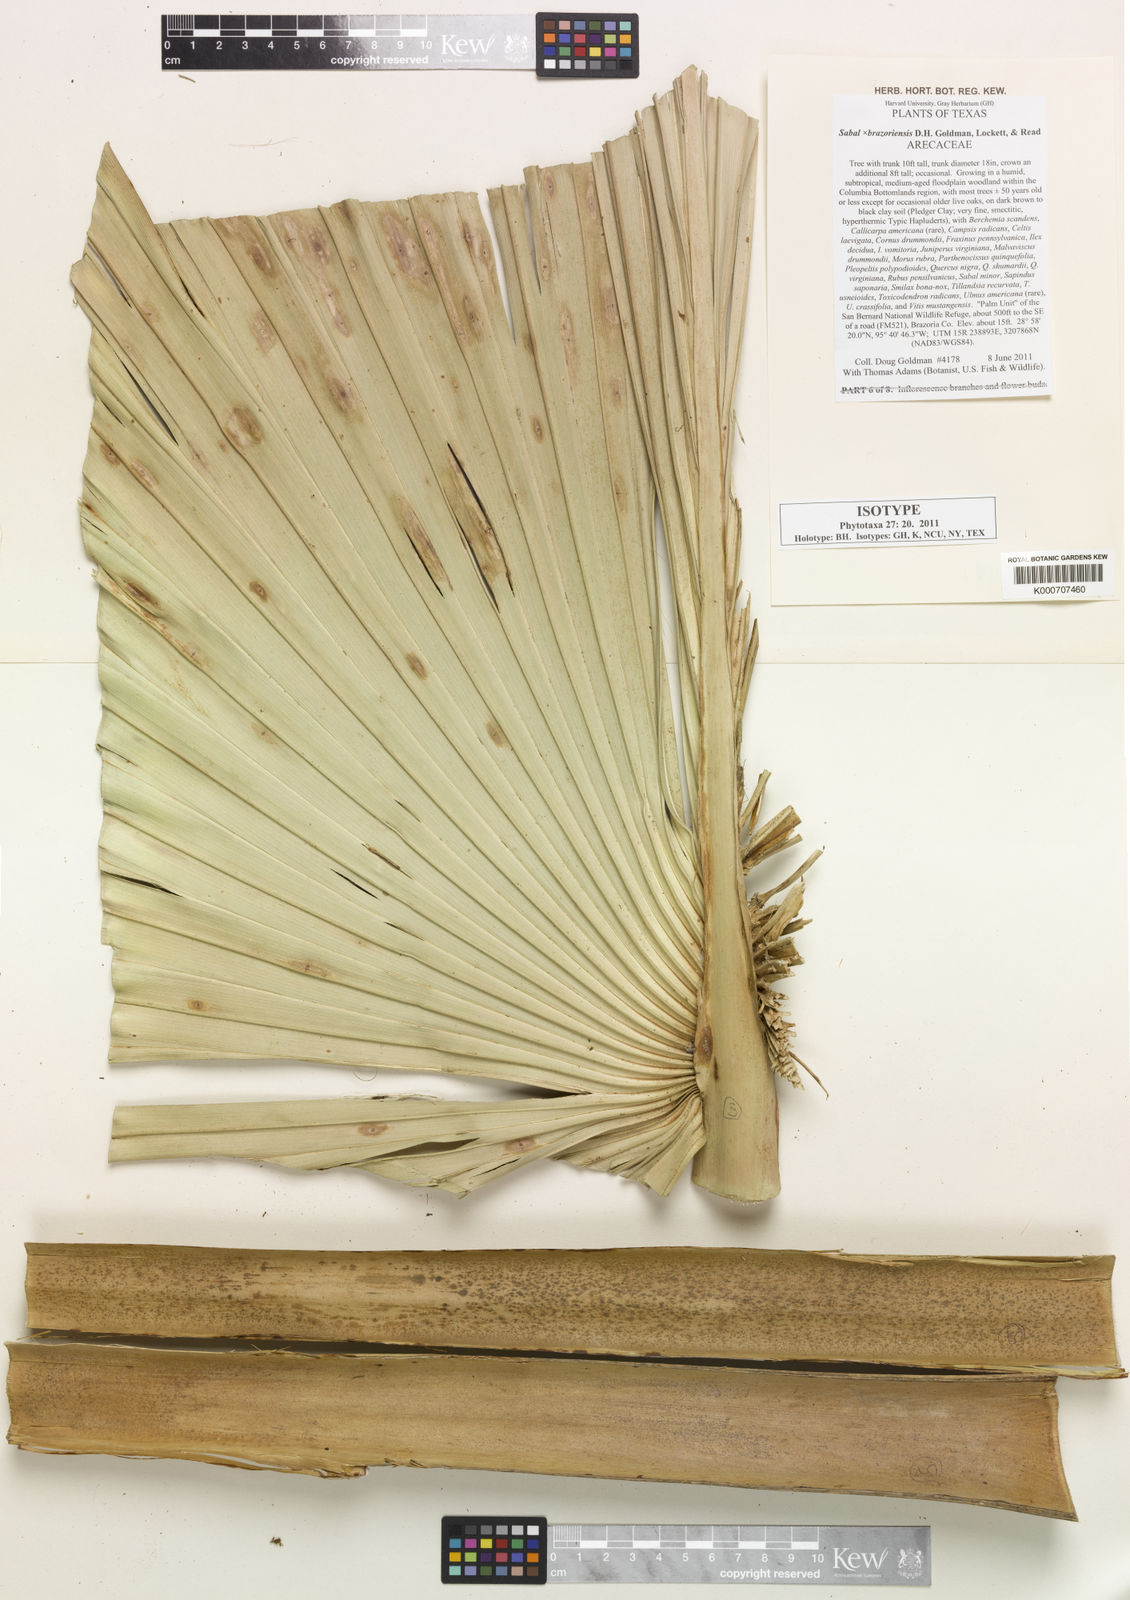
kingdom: Plantae
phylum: Tracheophyta
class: Liliopsida
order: Arecales
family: Arecaceae
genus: Sabal
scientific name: Sabal
